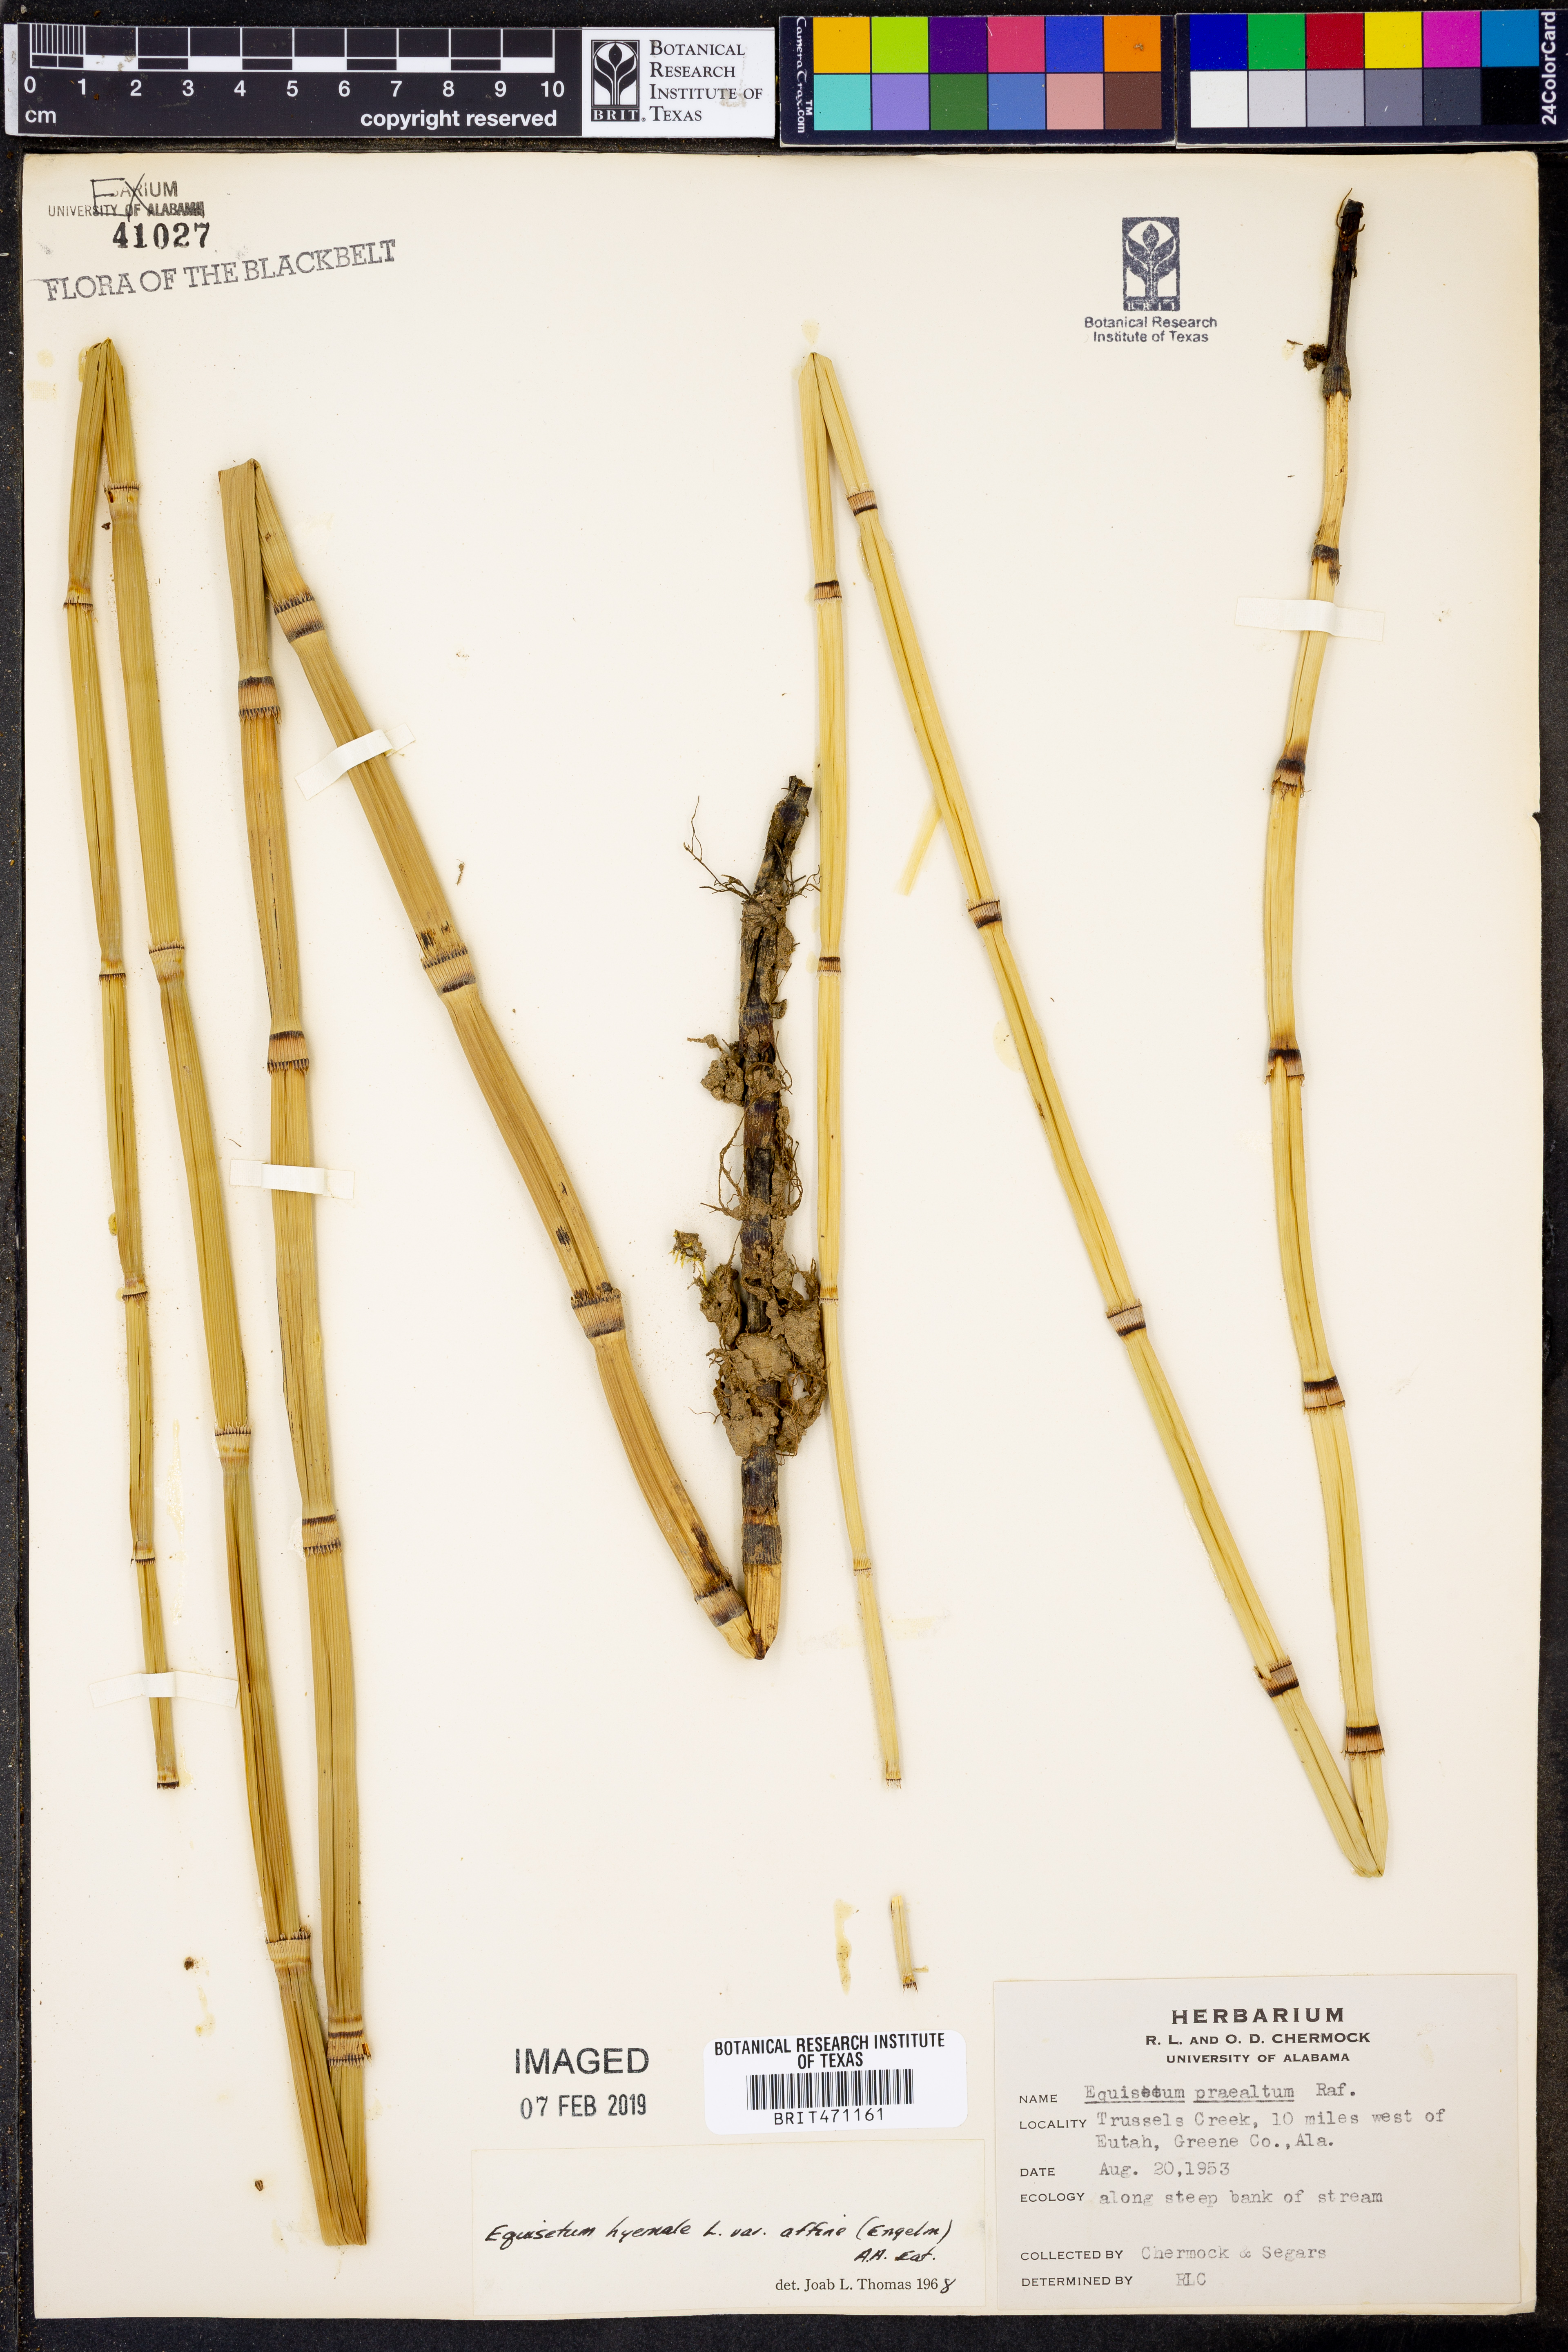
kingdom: Plantae
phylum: Tracheophyta
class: Polypodiopsida
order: Equisetales
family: Equisetaceae
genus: Equisetum
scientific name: Equisetum praealtum
